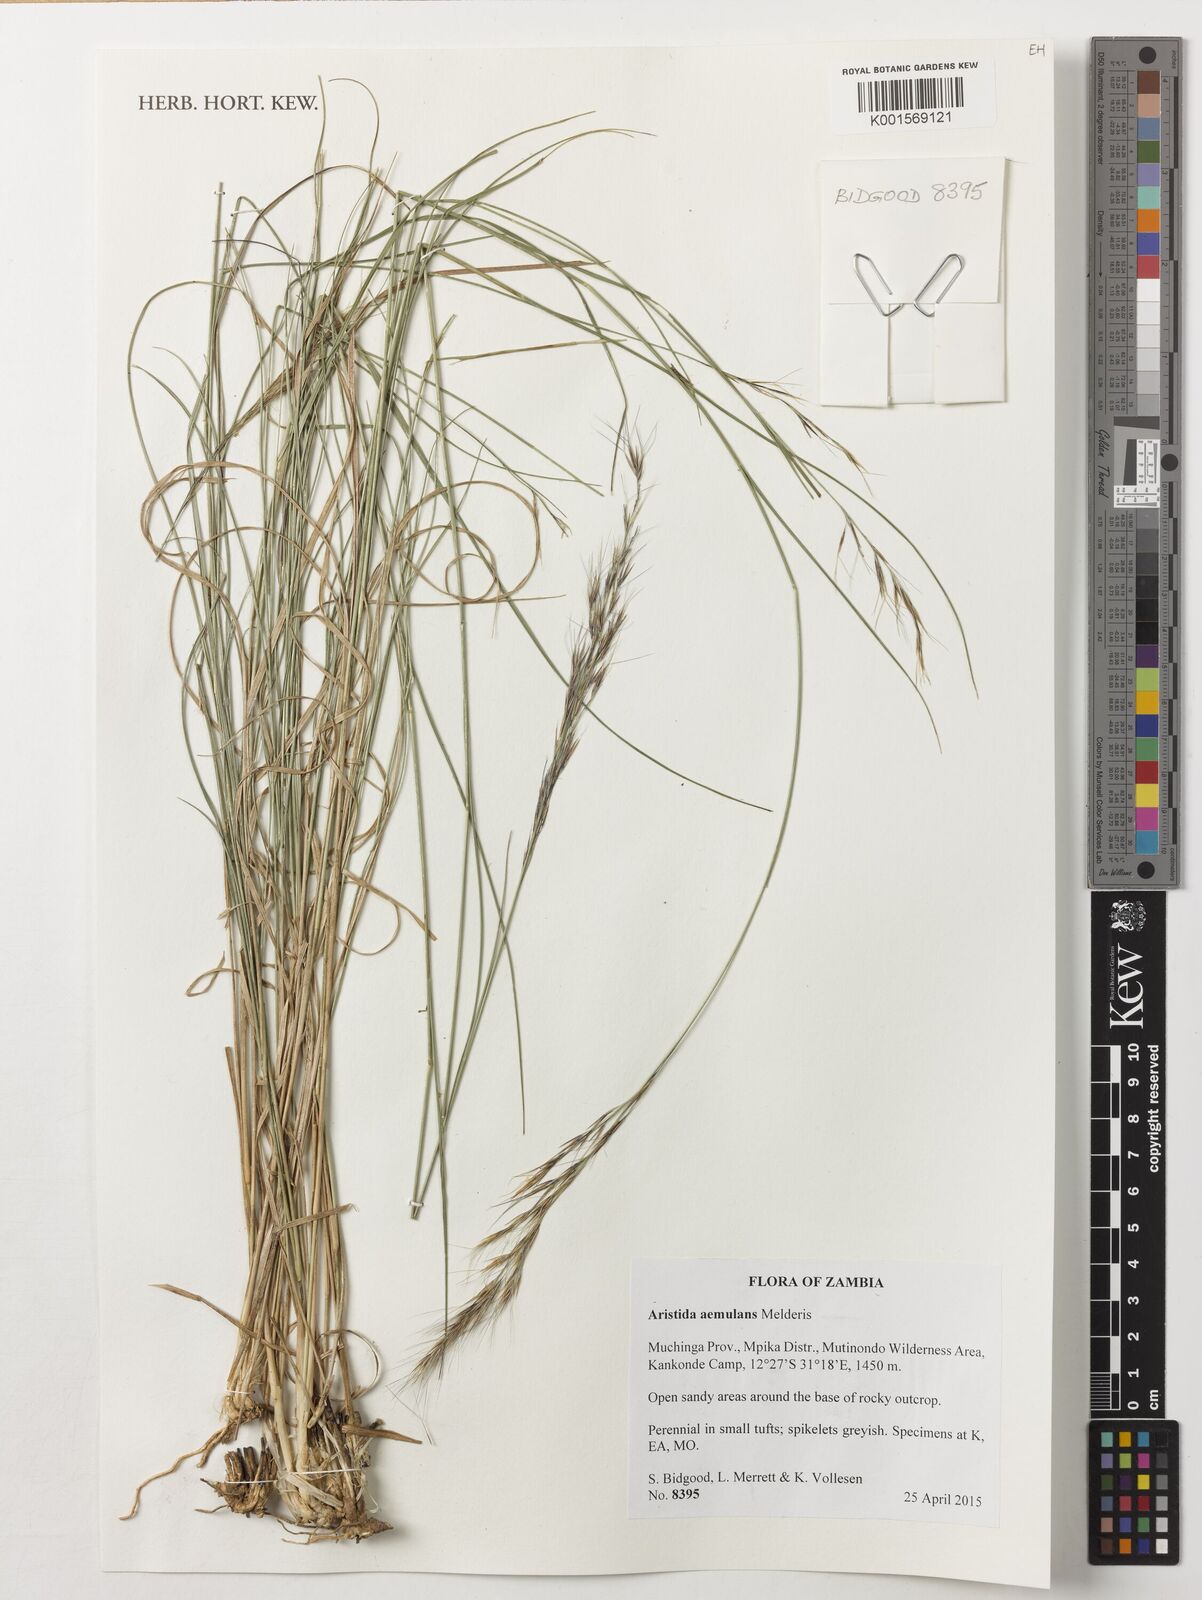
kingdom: Plantae
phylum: Tracheophyta
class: Liliopsida
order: Poales
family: Poaceae
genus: Aristida
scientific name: Aristida aemulans
